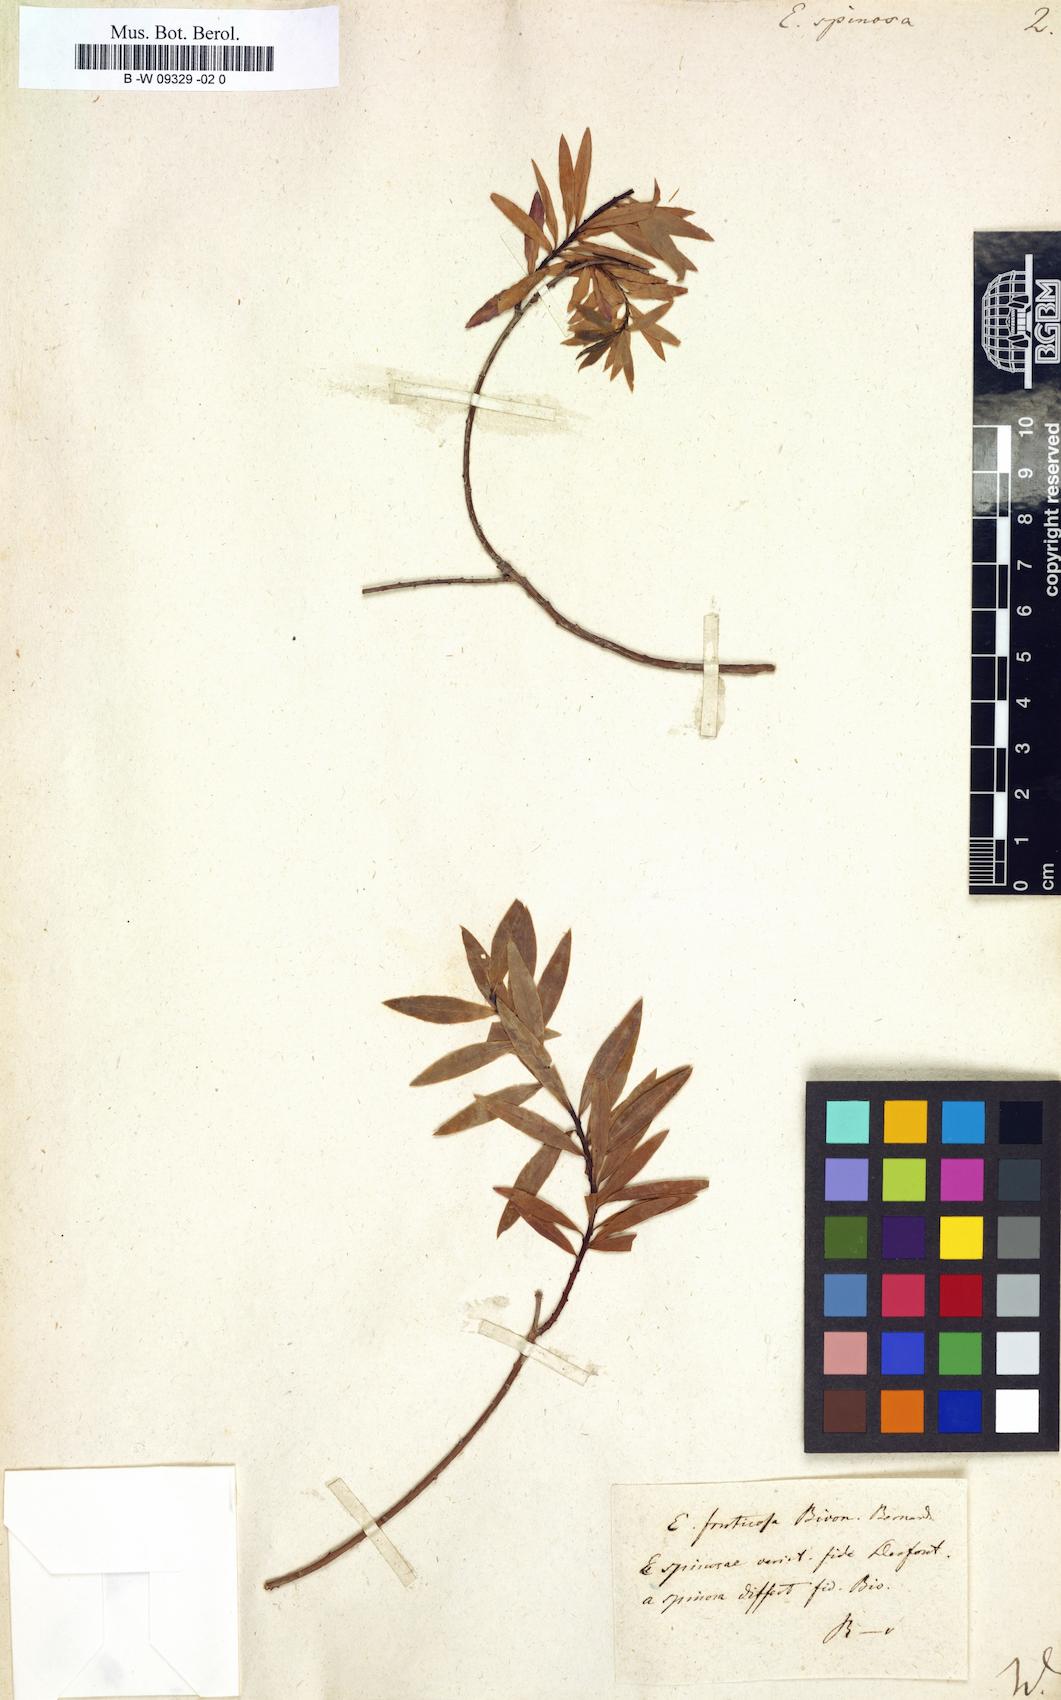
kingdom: Plantae
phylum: Tracheophyta
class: Magnoliopsida
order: Malpighiales
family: Euphorbiaceae
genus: Euphorbia
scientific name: Euphorbia spinosa
